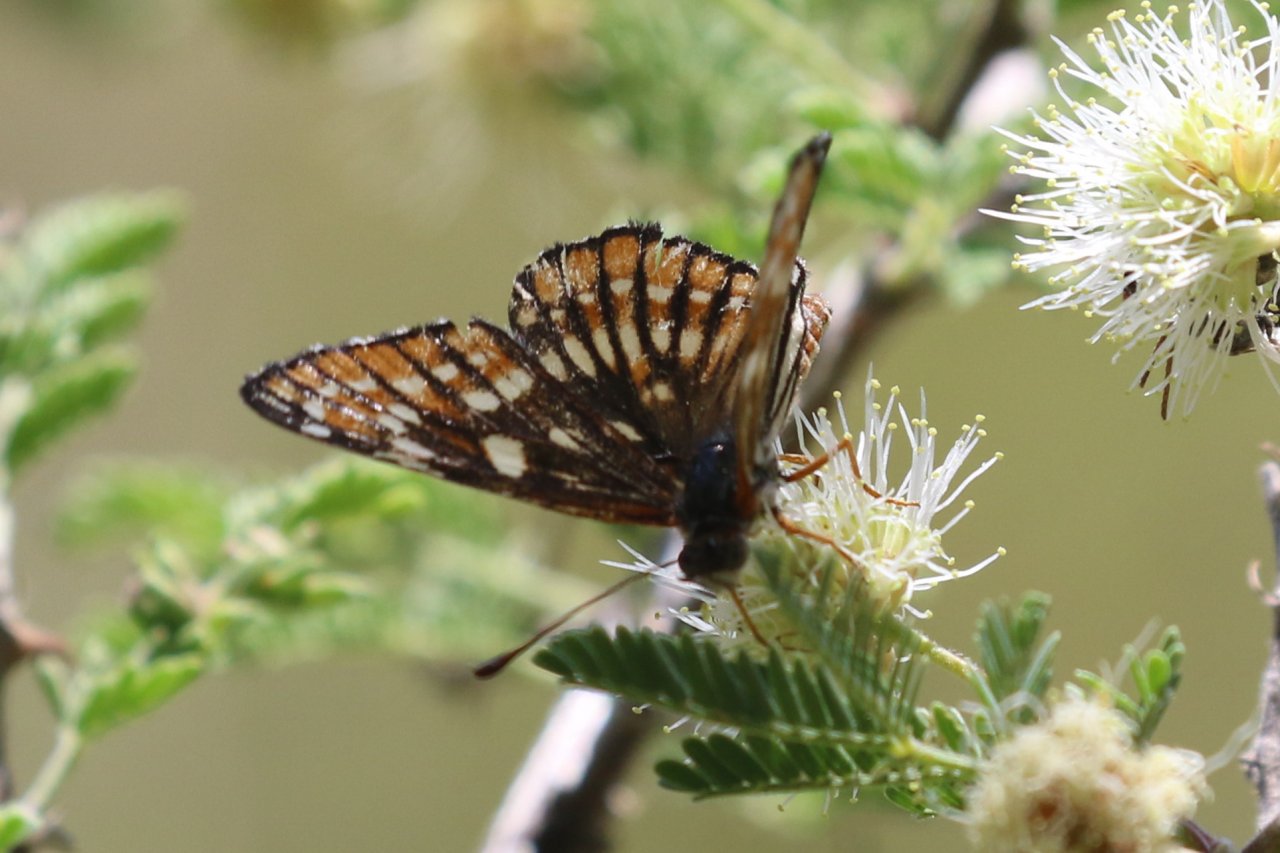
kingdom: Animalia
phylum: Arthropoda
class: Insecta
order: Lepidoptera
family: Nymphalidae
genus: Thessalia
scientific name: Thessalia leanira
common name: Fulvia Checkerspot
